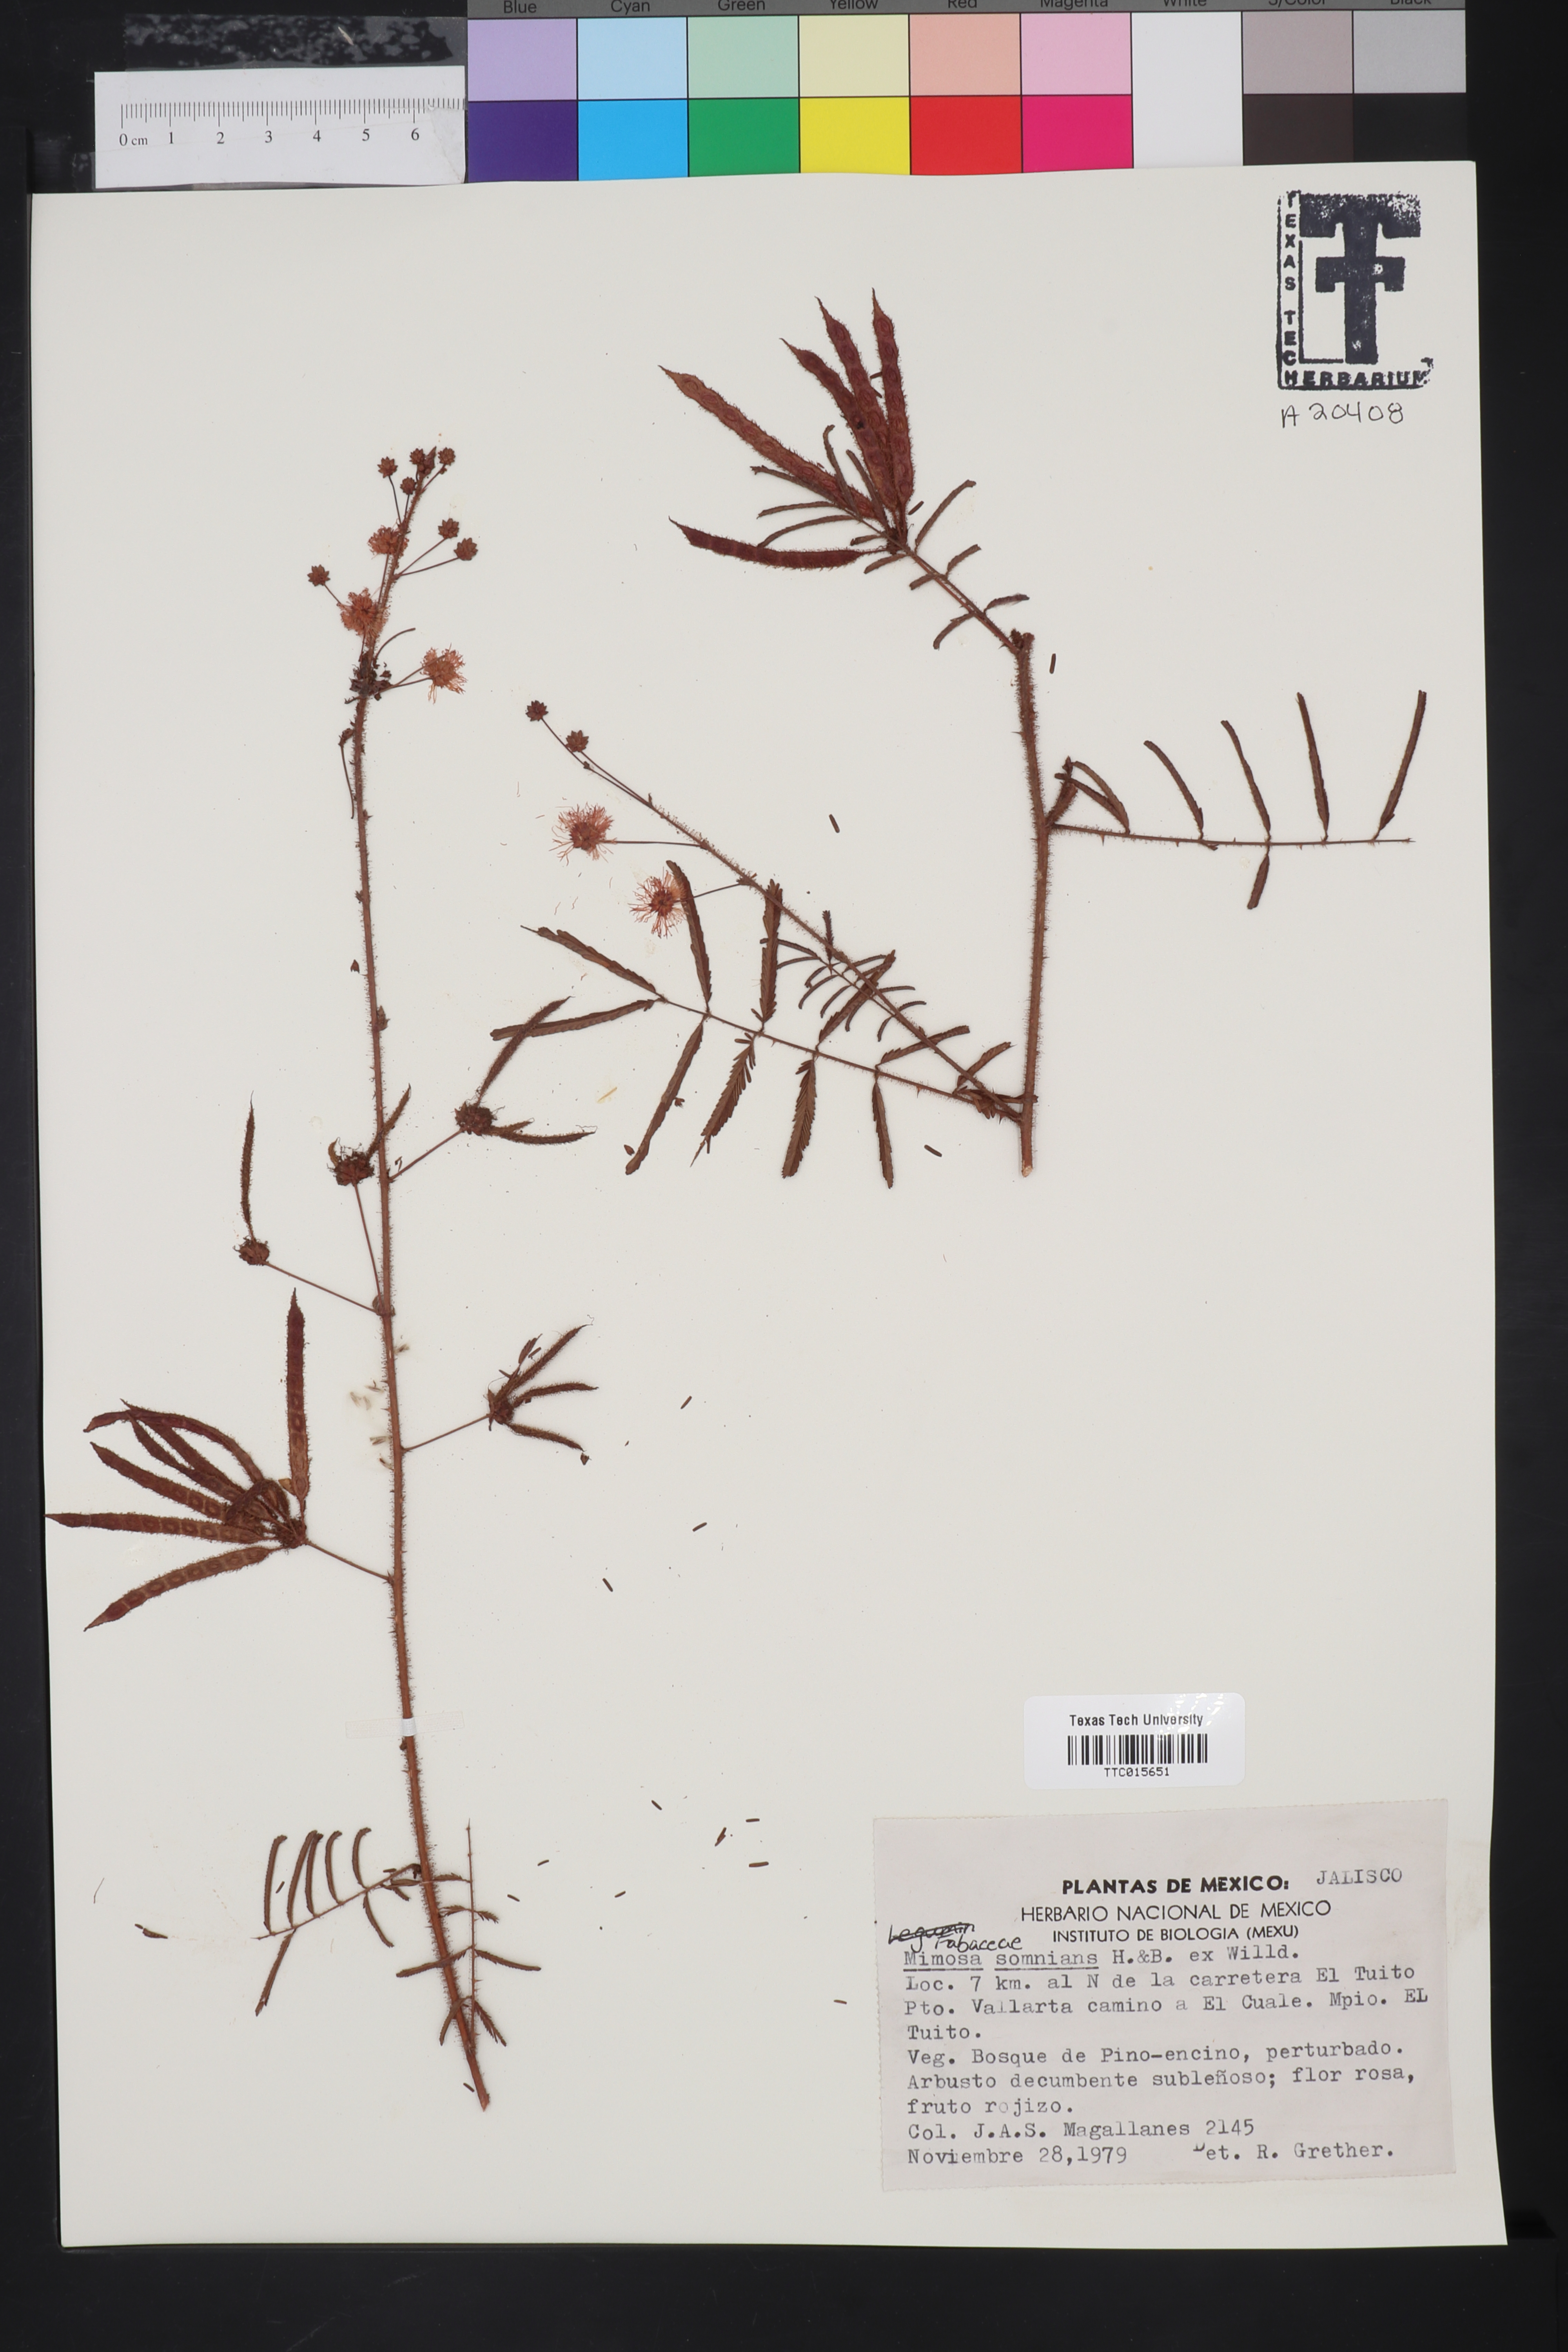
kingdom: Plantae
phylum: Tracheophyta
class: Magnoliopsida
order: Fabales
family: Fabaceae
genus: Mimosa
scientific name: Mimosa somnians
